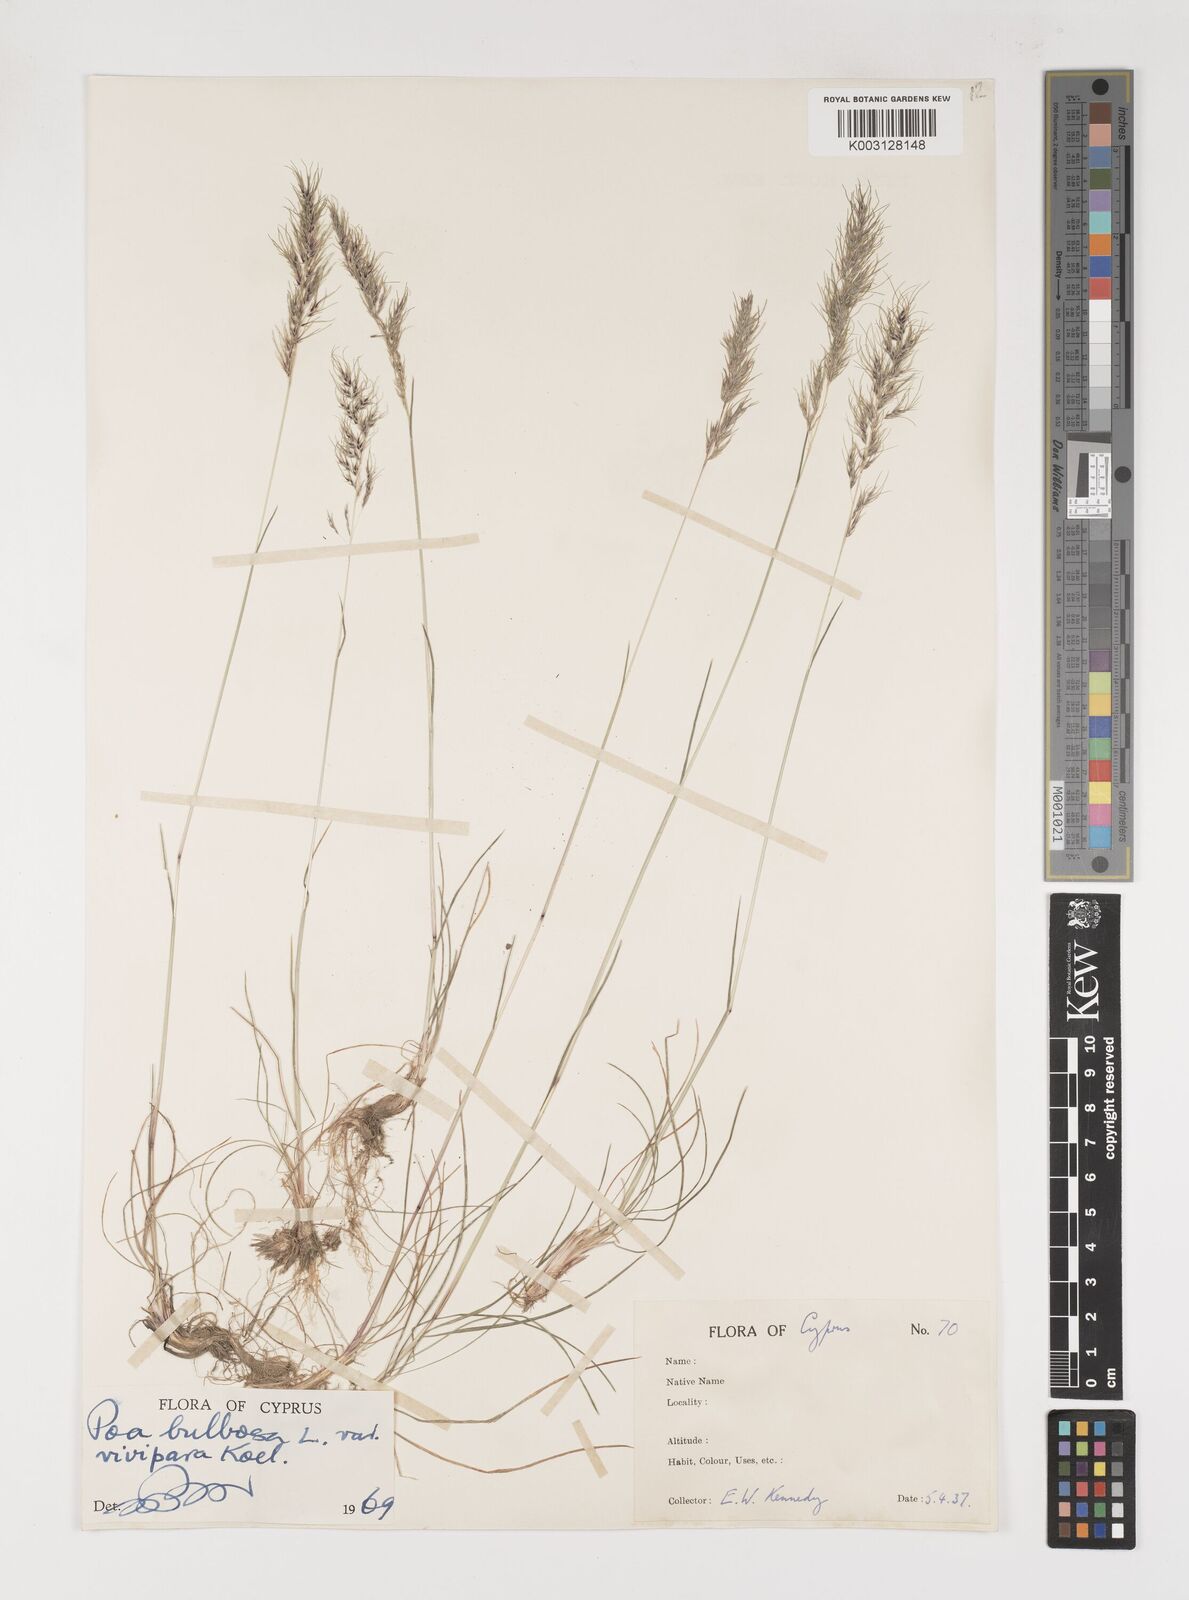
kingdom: Plantae
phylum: Tracheophyta
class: Liliopsida
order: Poales
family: Poaceae
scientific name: Poaceae
